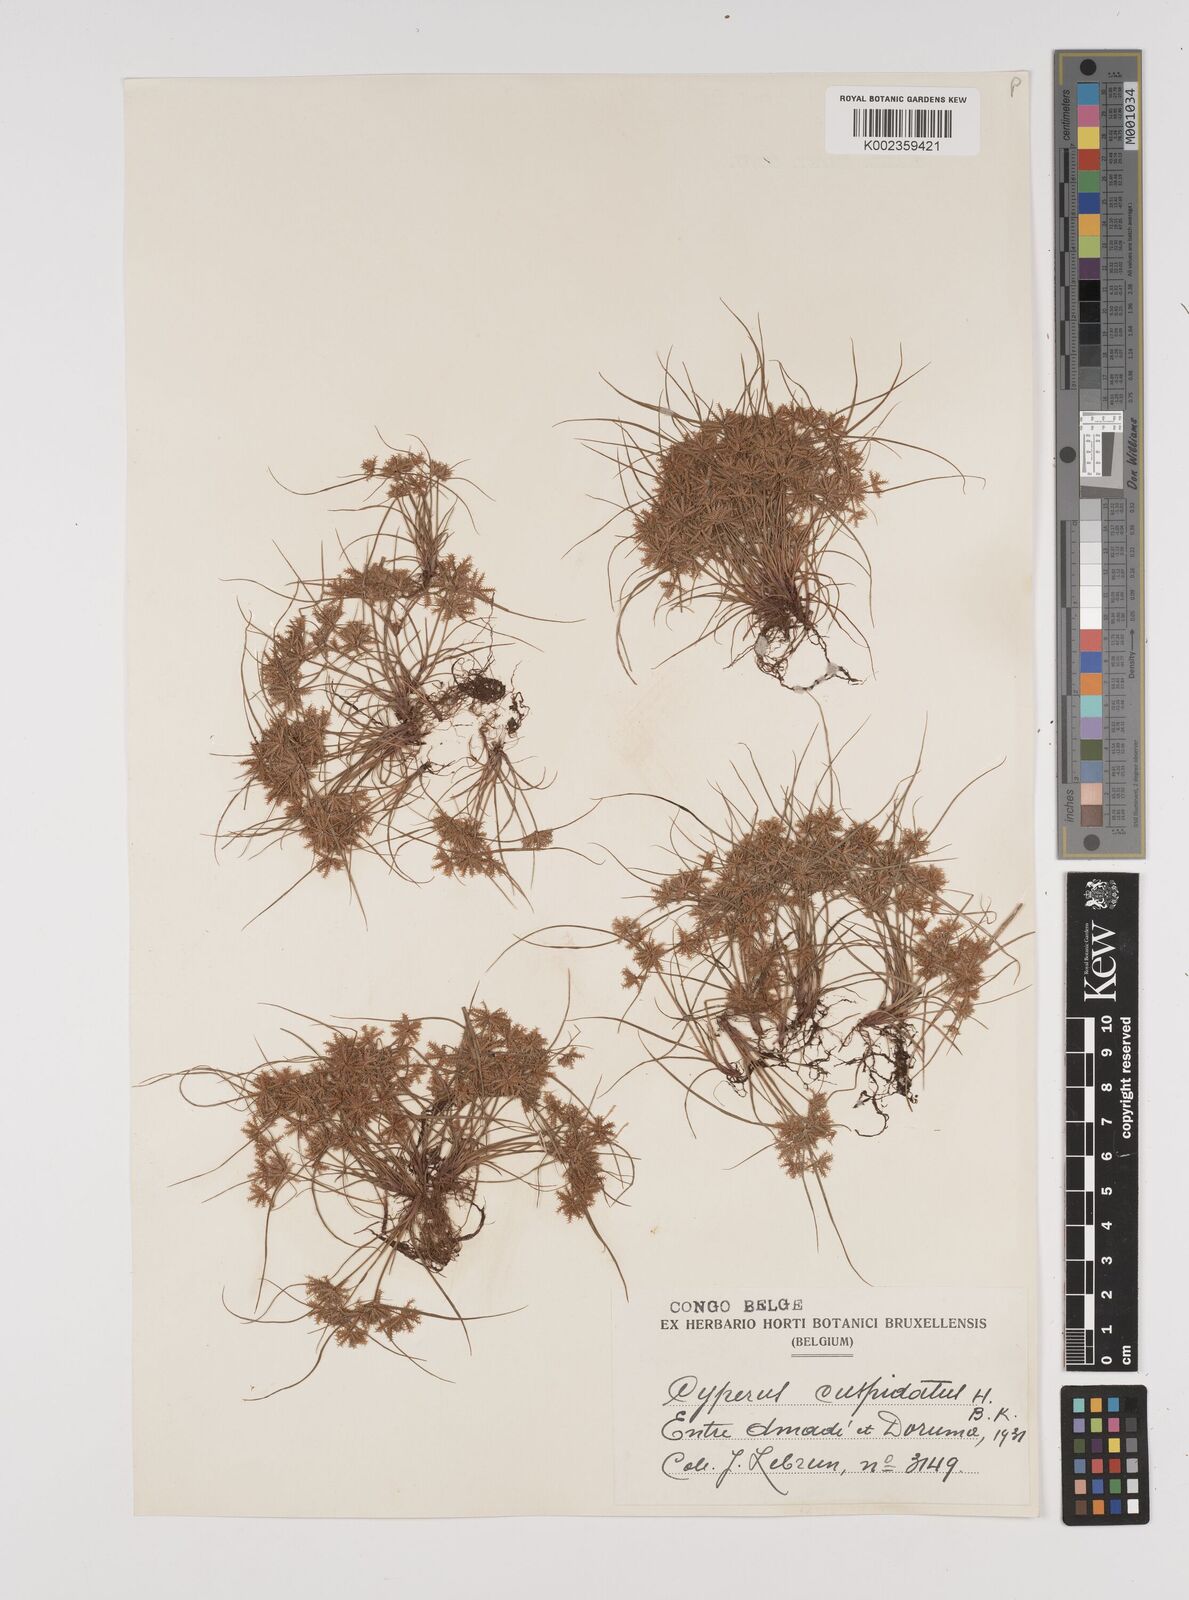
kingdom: Plantae
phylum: Tracheophyta
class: Liliopsida
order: Poales
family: Cyperaceae
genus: Cyperus
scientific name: Cyperus cuspidatus
